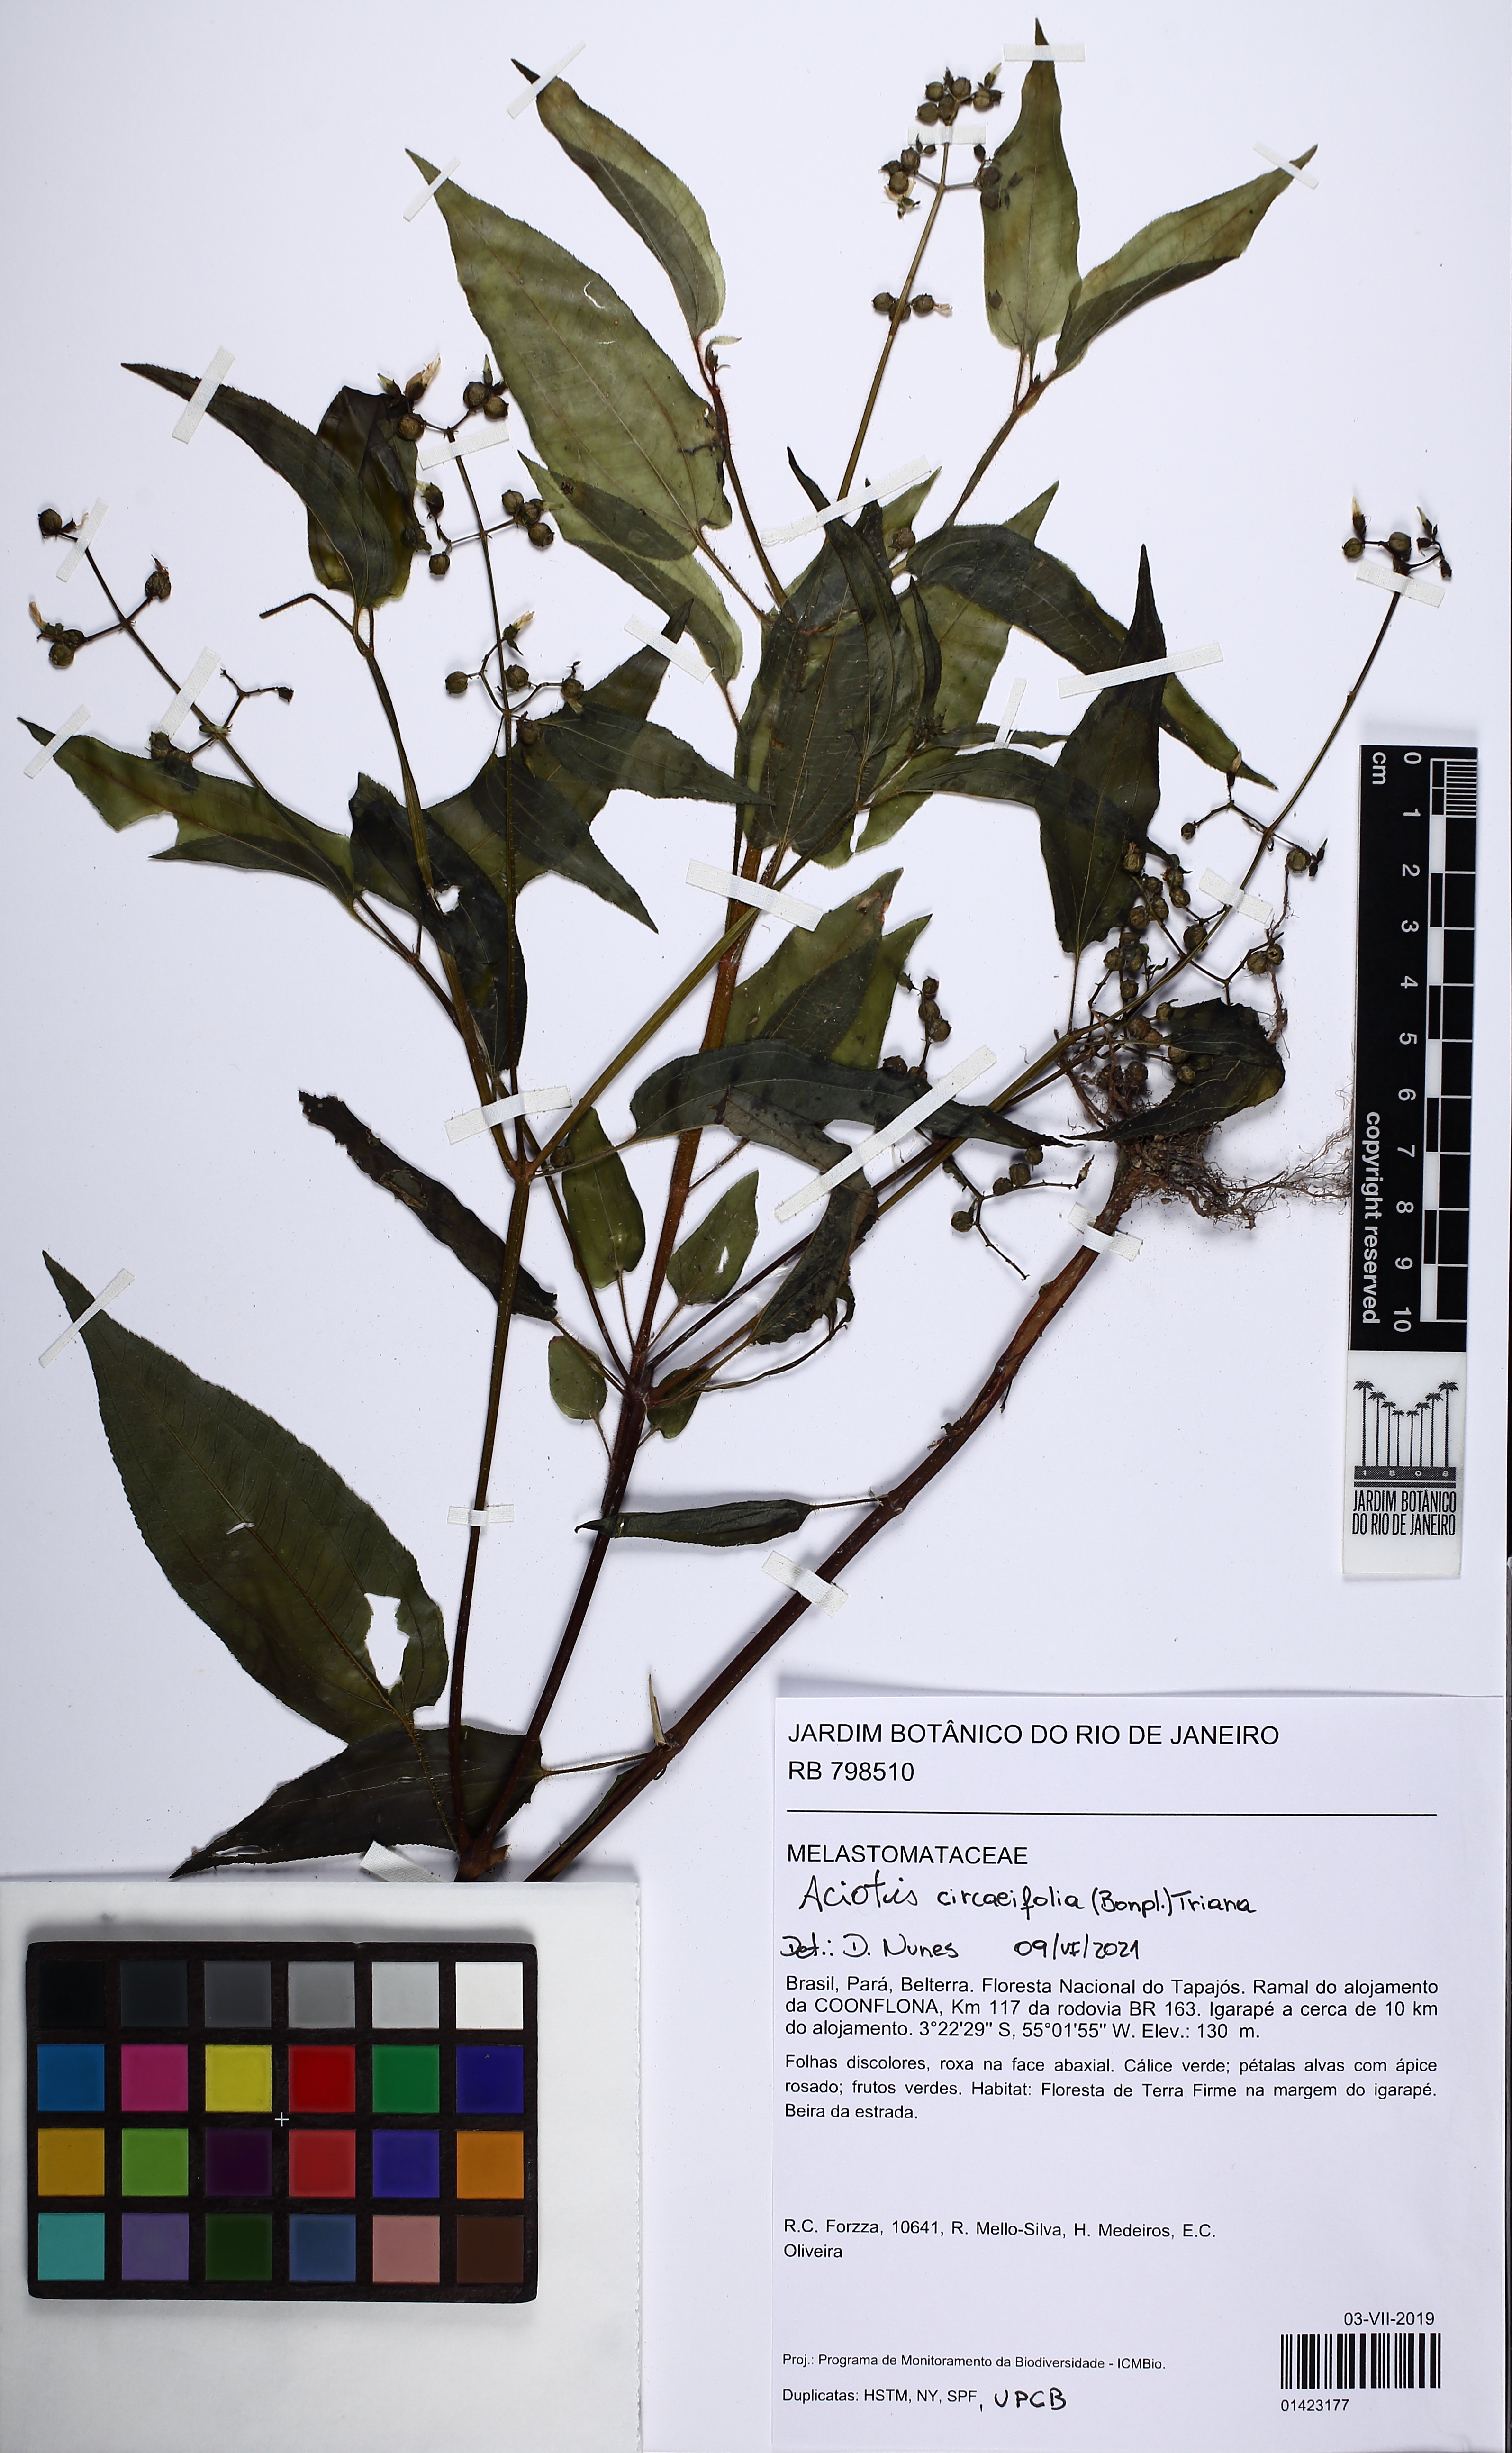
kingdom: Plantae
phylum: Tracheophyta
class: Magnoliopsida
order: Myrtales
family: Melastomataceae
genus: Aciotis
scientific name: Aciotis circaeifolia
